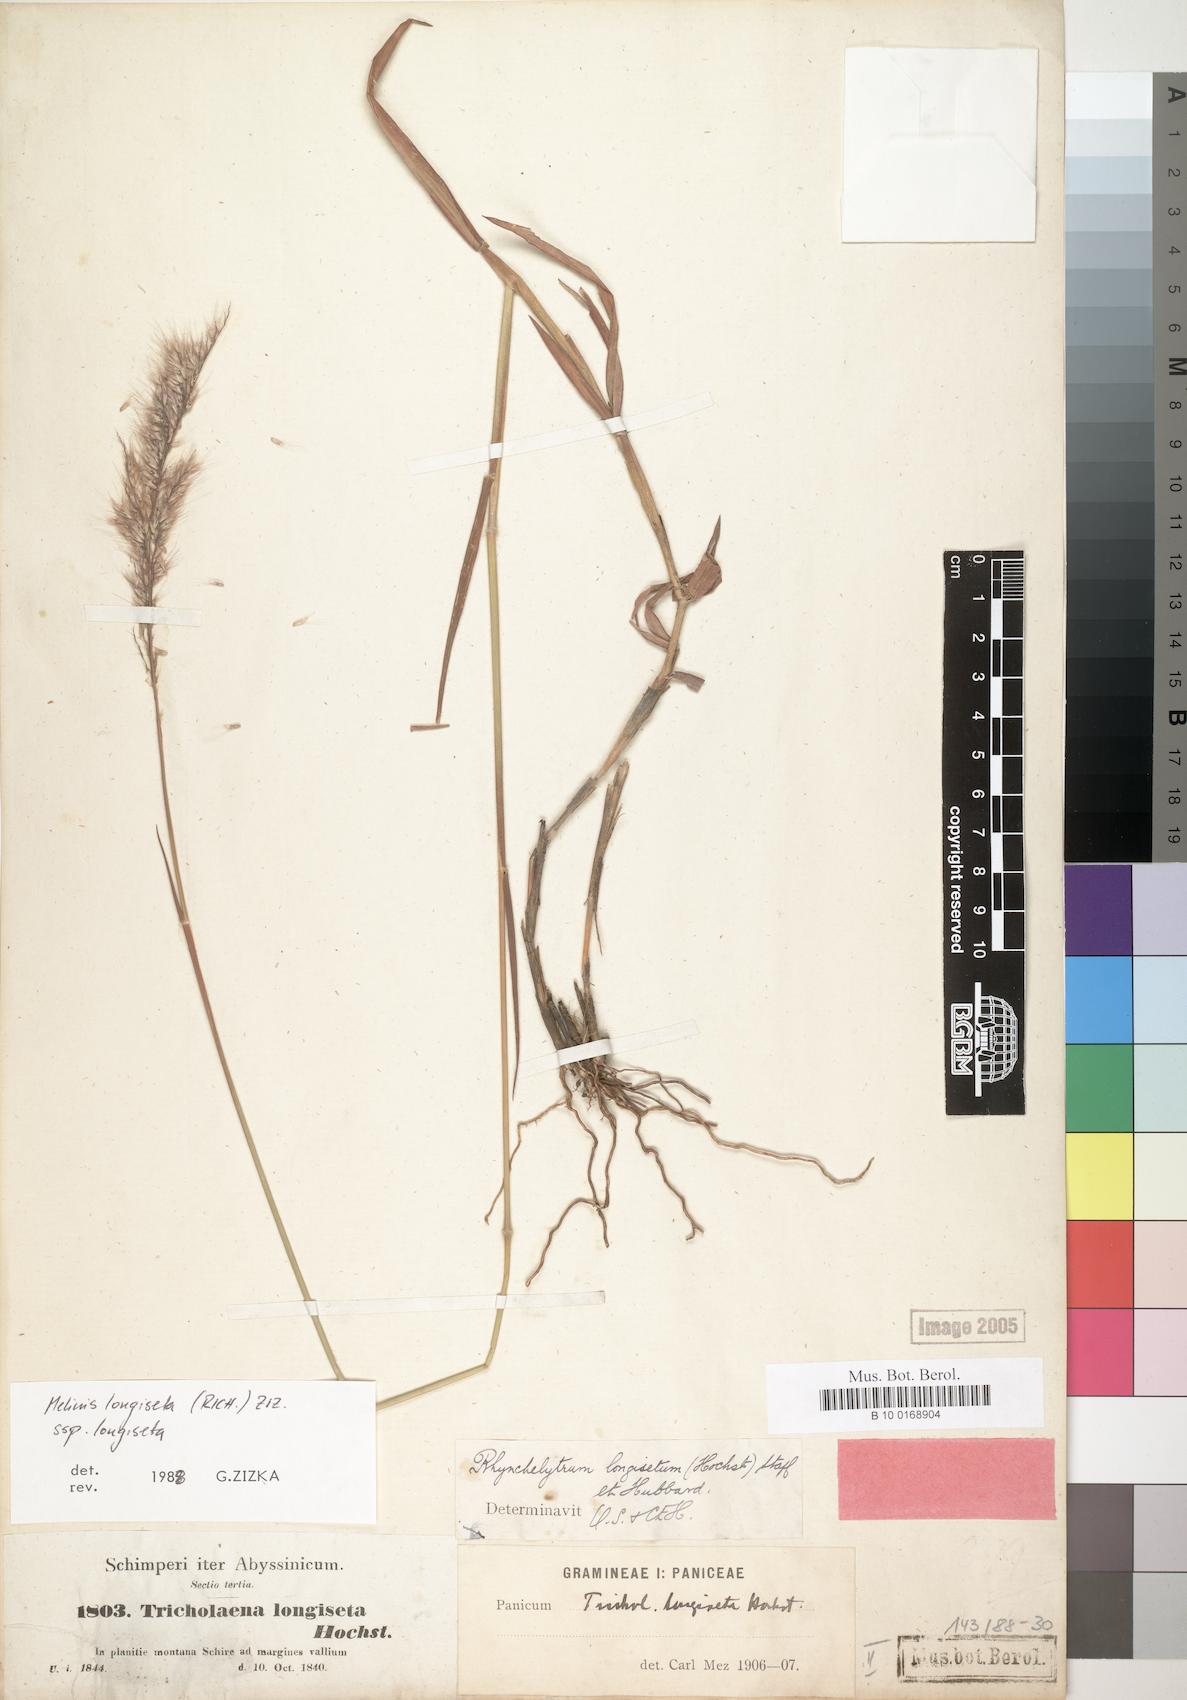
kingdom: Plantae
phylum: Tracheophyta
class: Liliopsida
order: Poales
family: Poaceae
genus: Melinis
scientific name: Melinis longiseta
